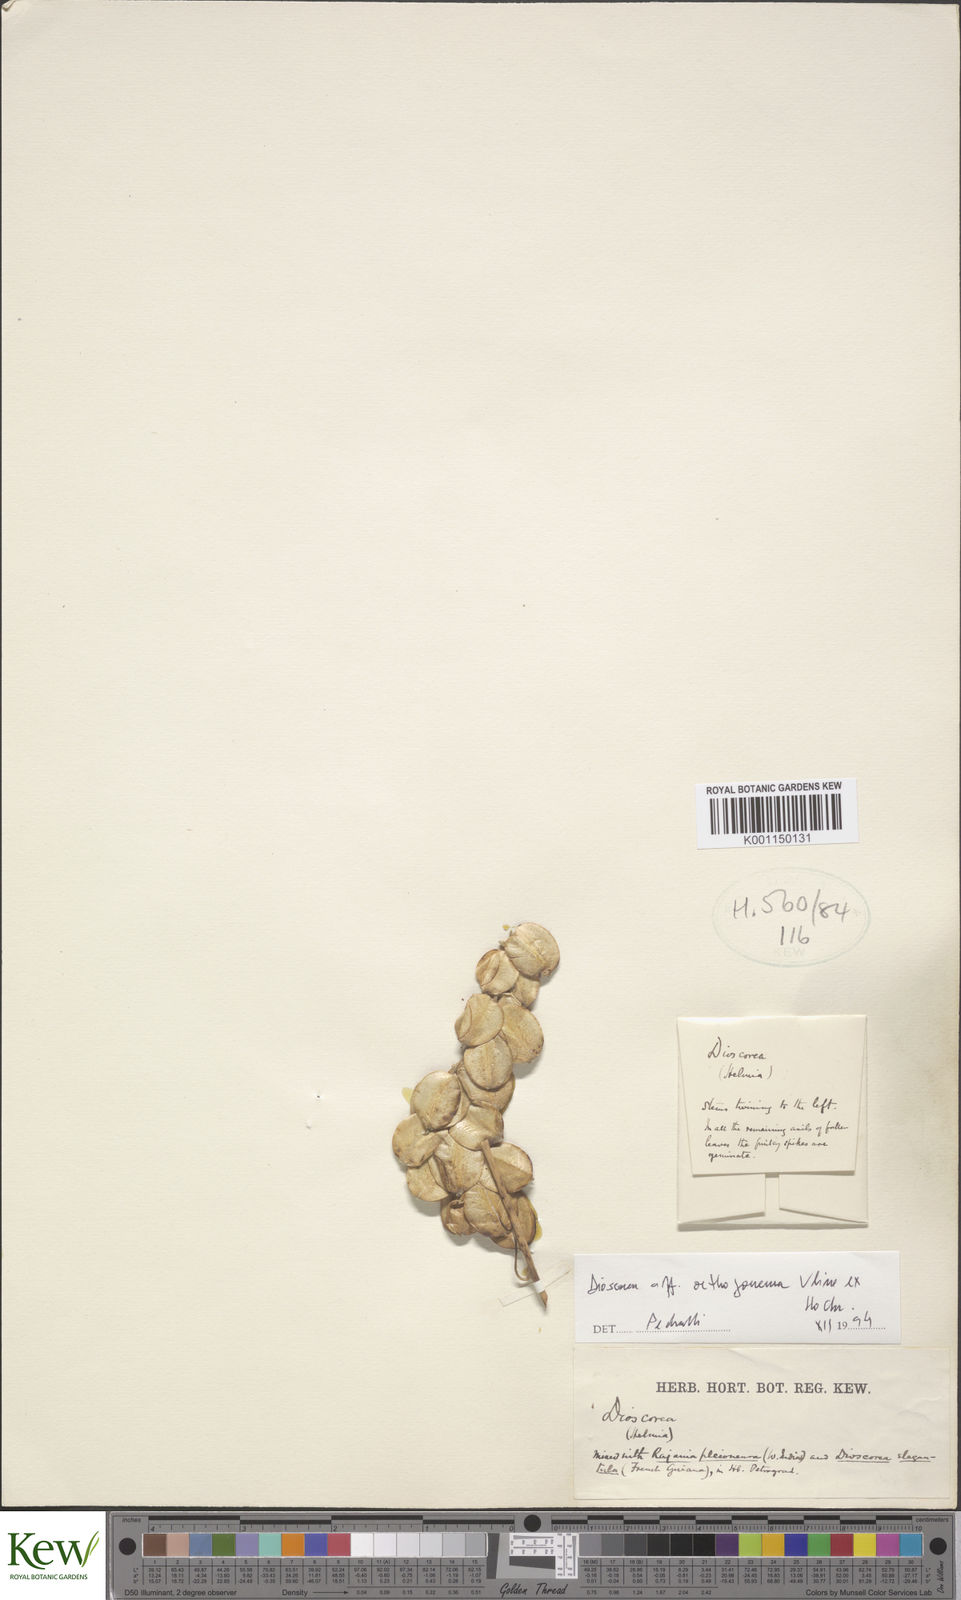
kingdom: Plantae
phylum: Tracheophyta
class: Liliopsida
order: Dioscoreales
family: Dioscoreaceae
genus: Dioscorea
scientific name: Dioscorea
